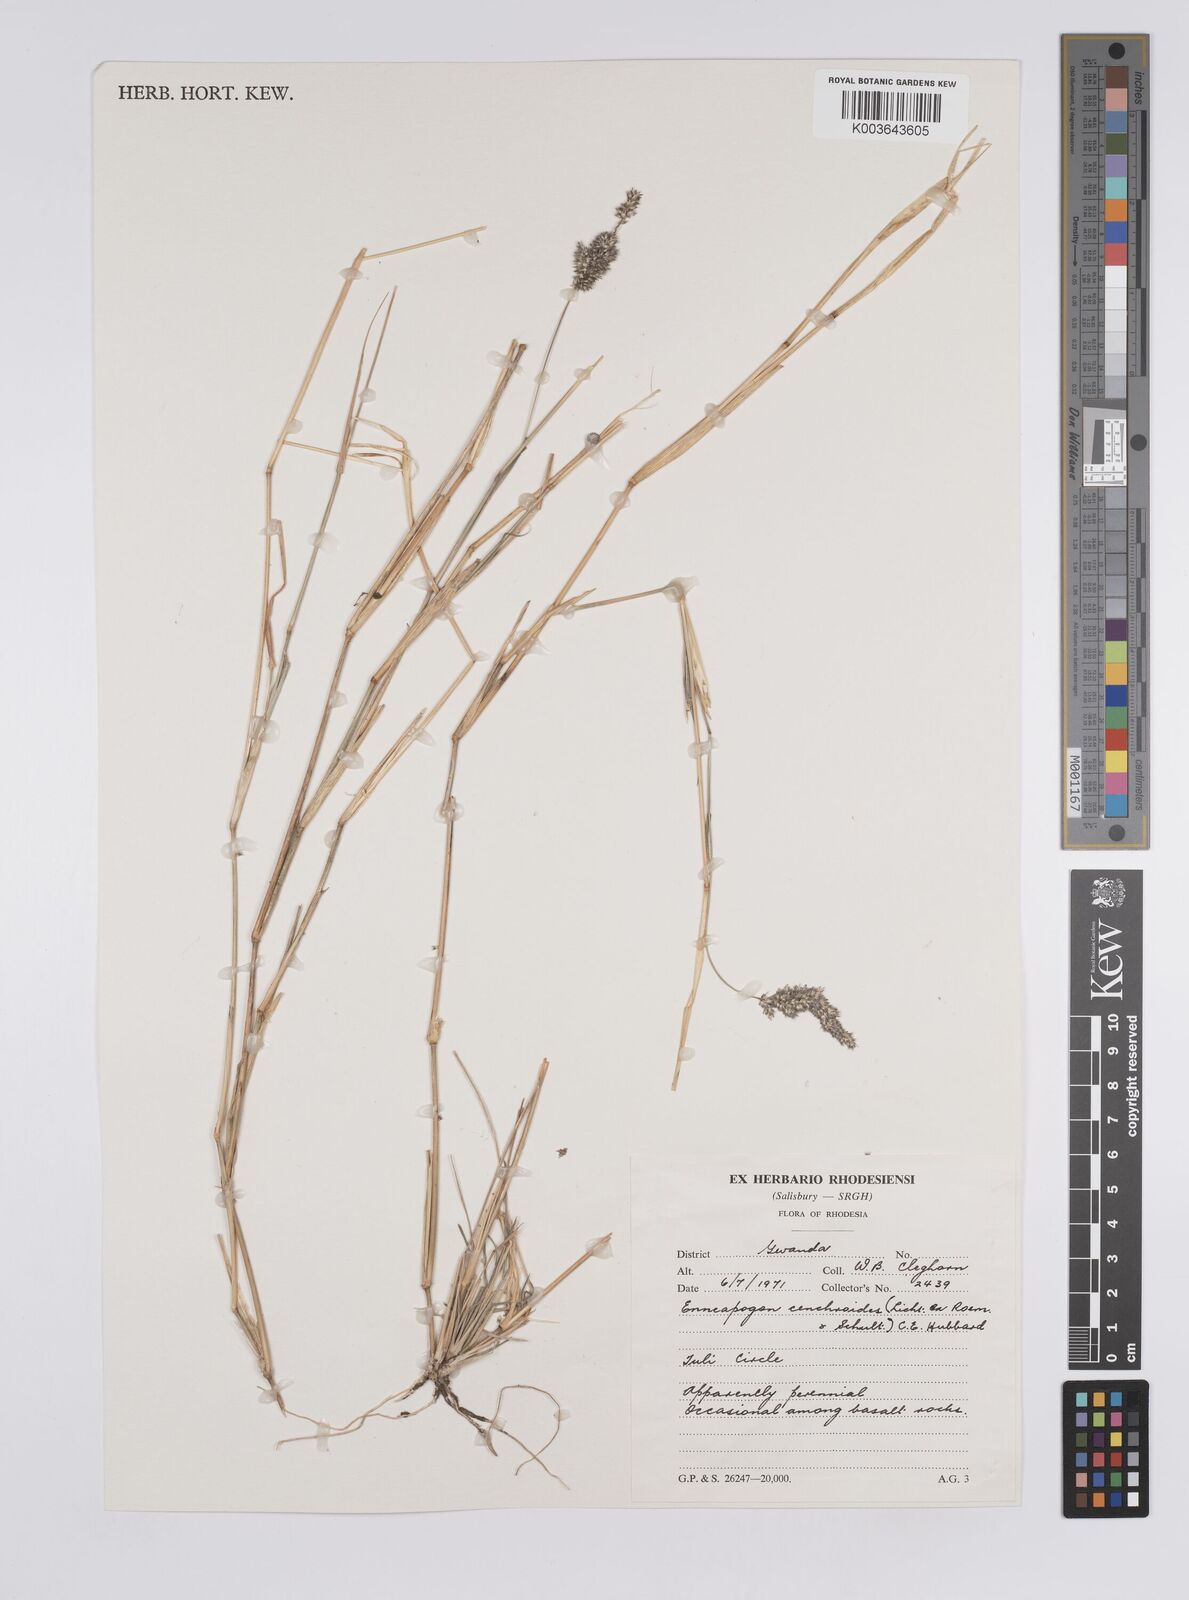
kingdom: Plantae
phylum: Tracheophyta
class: Liliopsida
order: Poales
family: Poaceae
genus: Enneapogon
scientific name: Enneapogon cenchroides
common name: Soft feather pappusgrass
